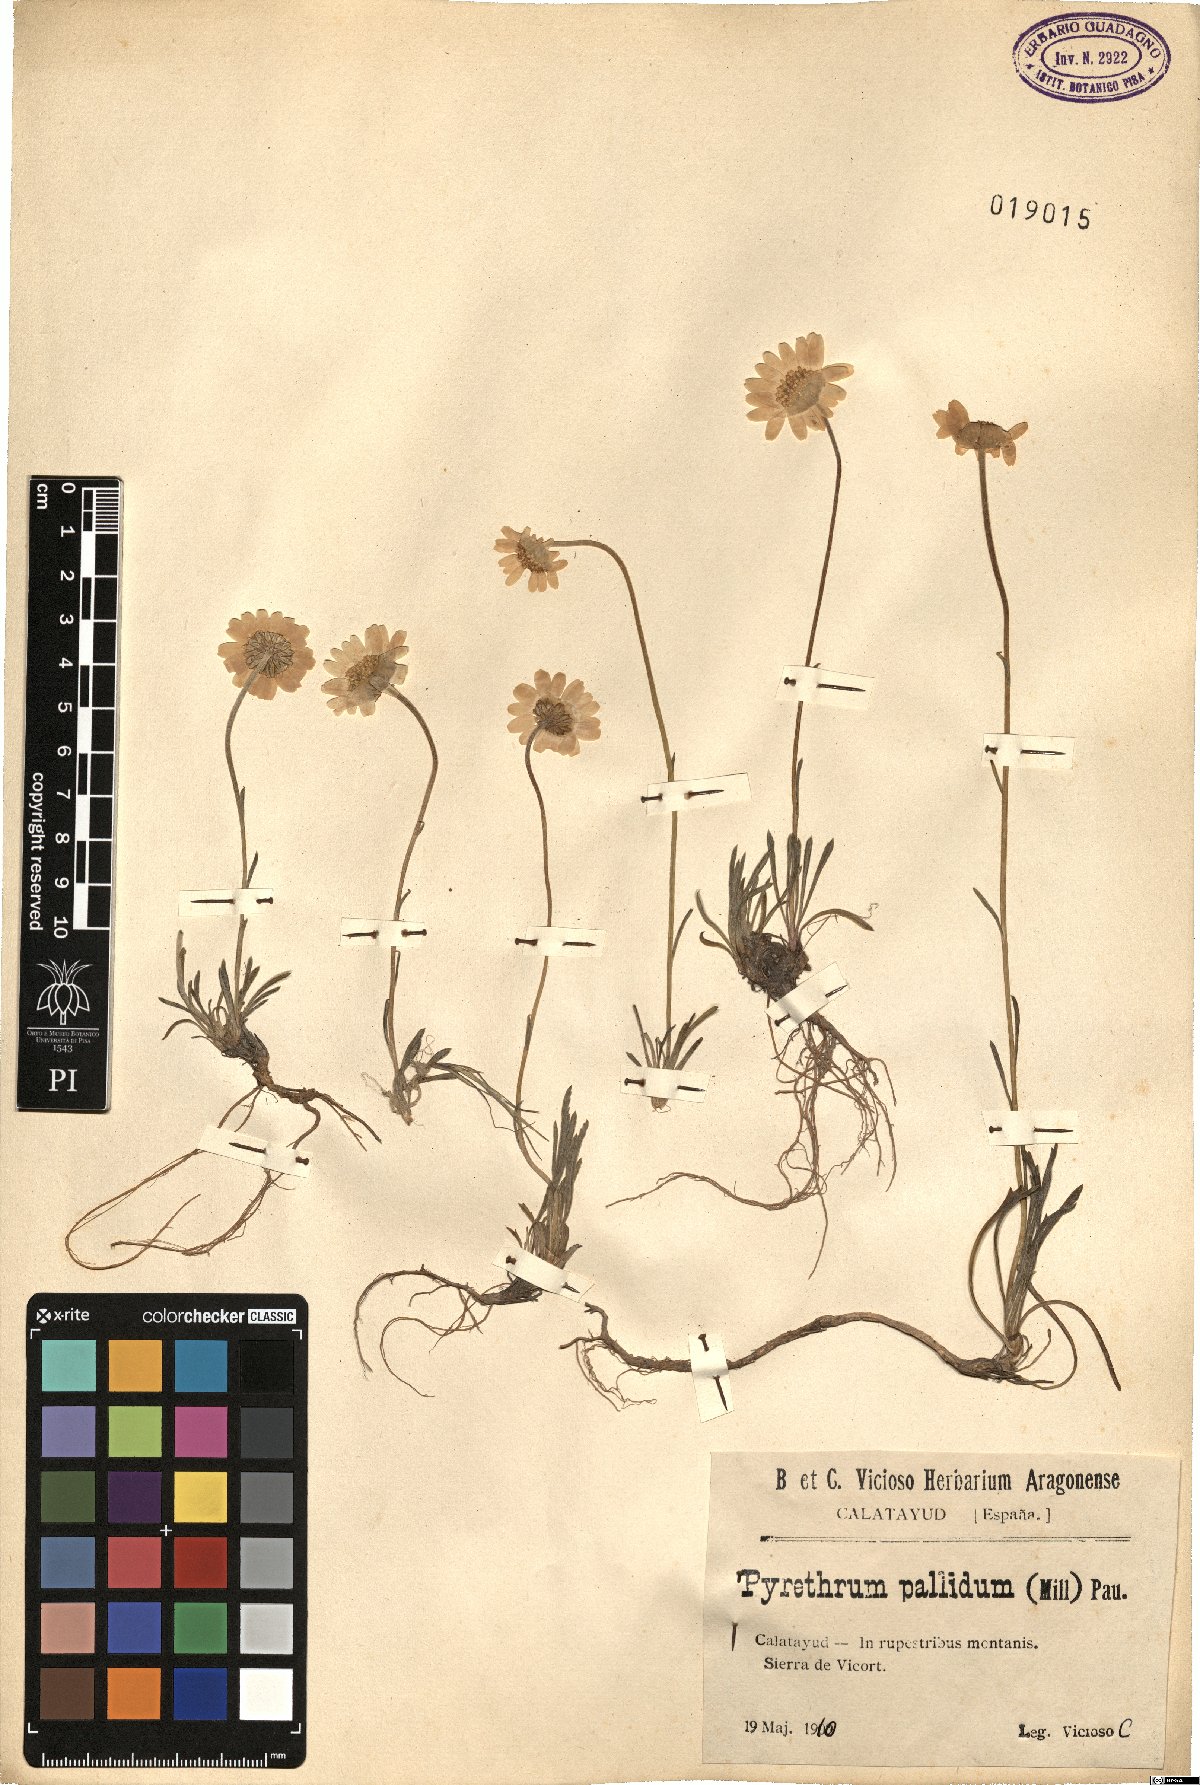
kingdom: Plantae
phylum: Tracheophyta
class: Magnoliopsida
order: Asterales
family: Asteraceae
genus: Leucanthemopsis
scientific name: Leucanthemopsis pallida
